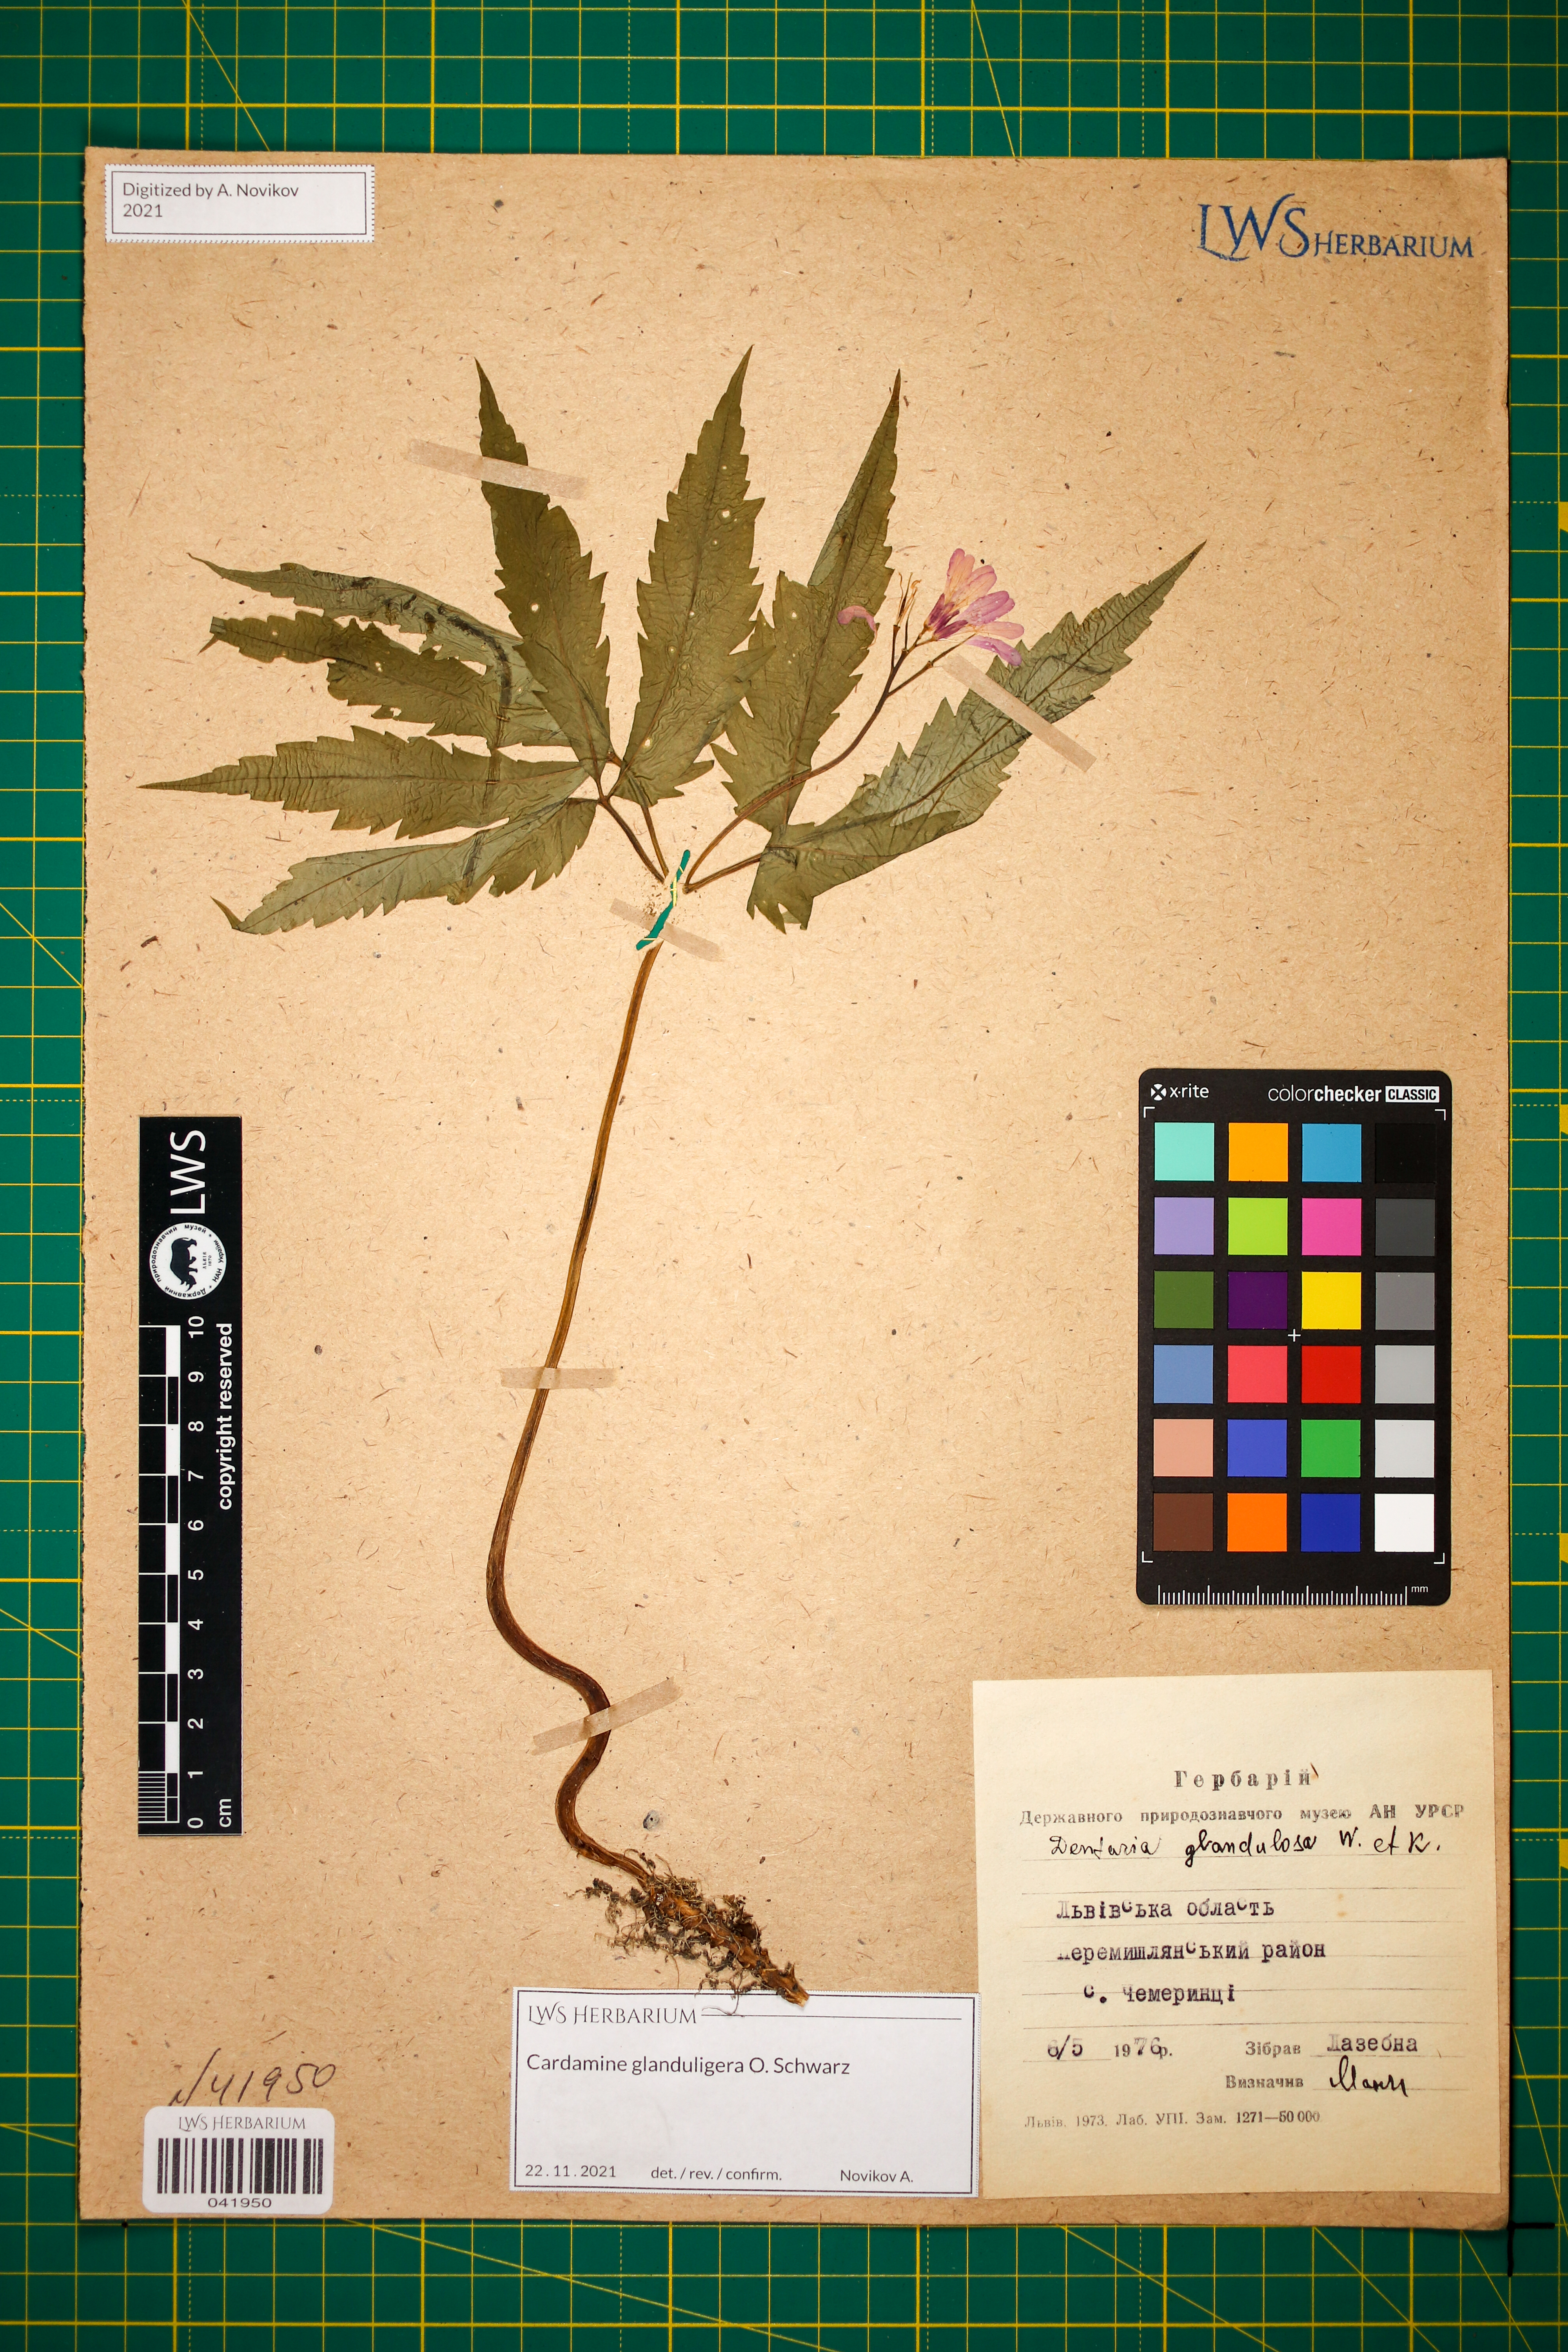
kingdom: Plantae
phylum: Tracheophyta
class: Magnoliopsida
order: Brassicales
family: Brassicaceae
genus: Cardamine
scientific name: Cardamine glanduligera
